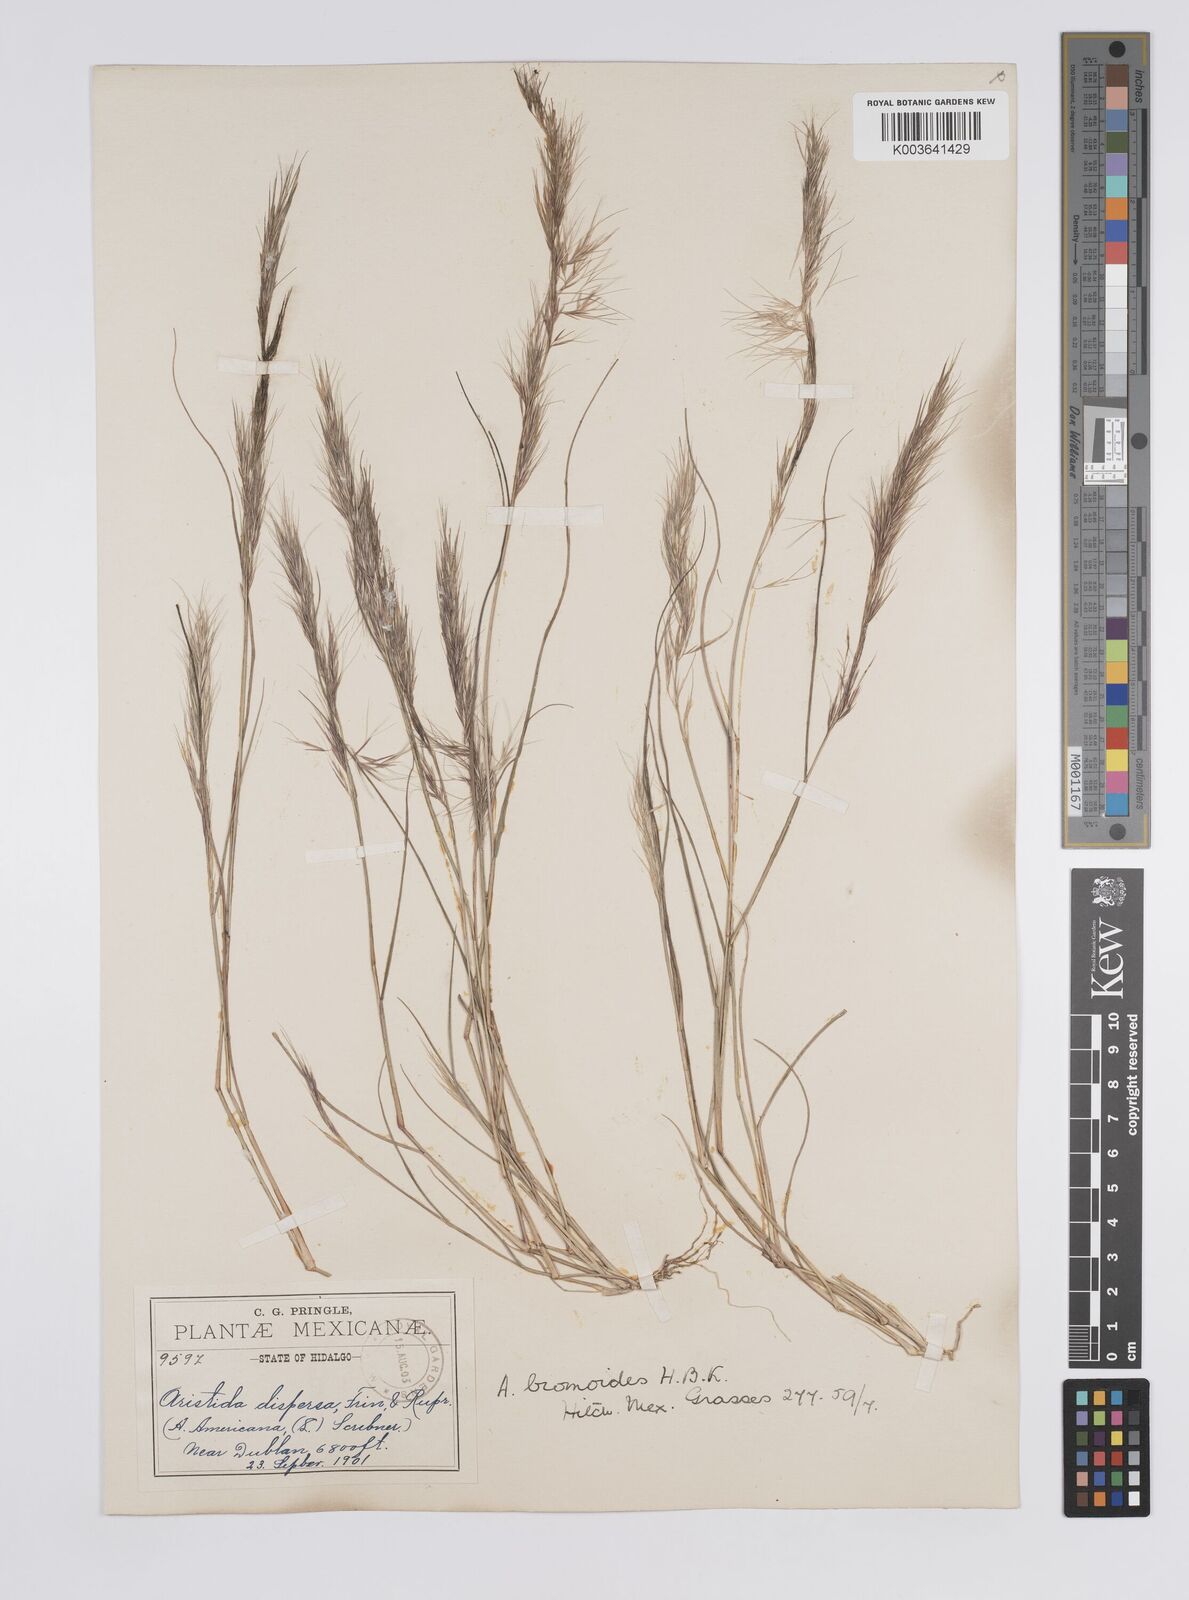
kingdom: Plantae
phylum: Tracheophyta
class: Liliopsida
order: Poales
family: Poaceae
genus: Aristida
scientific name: Aristida adscensionis
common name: Sixweeks threeawn
